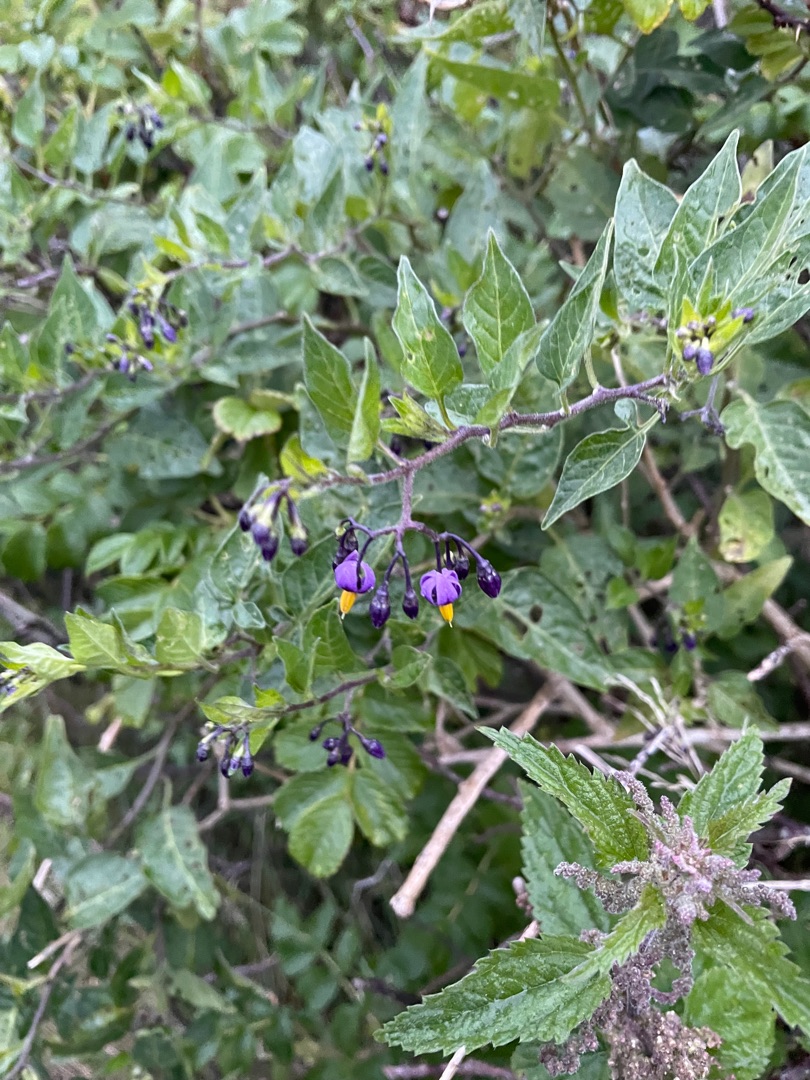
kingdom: Plantae
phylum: Tracheophyta
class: Magnoliopsida
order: Solanales
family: Solanaceae
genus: Solanum
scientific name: Solanum dulcamara
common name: Bittersød natskygge
